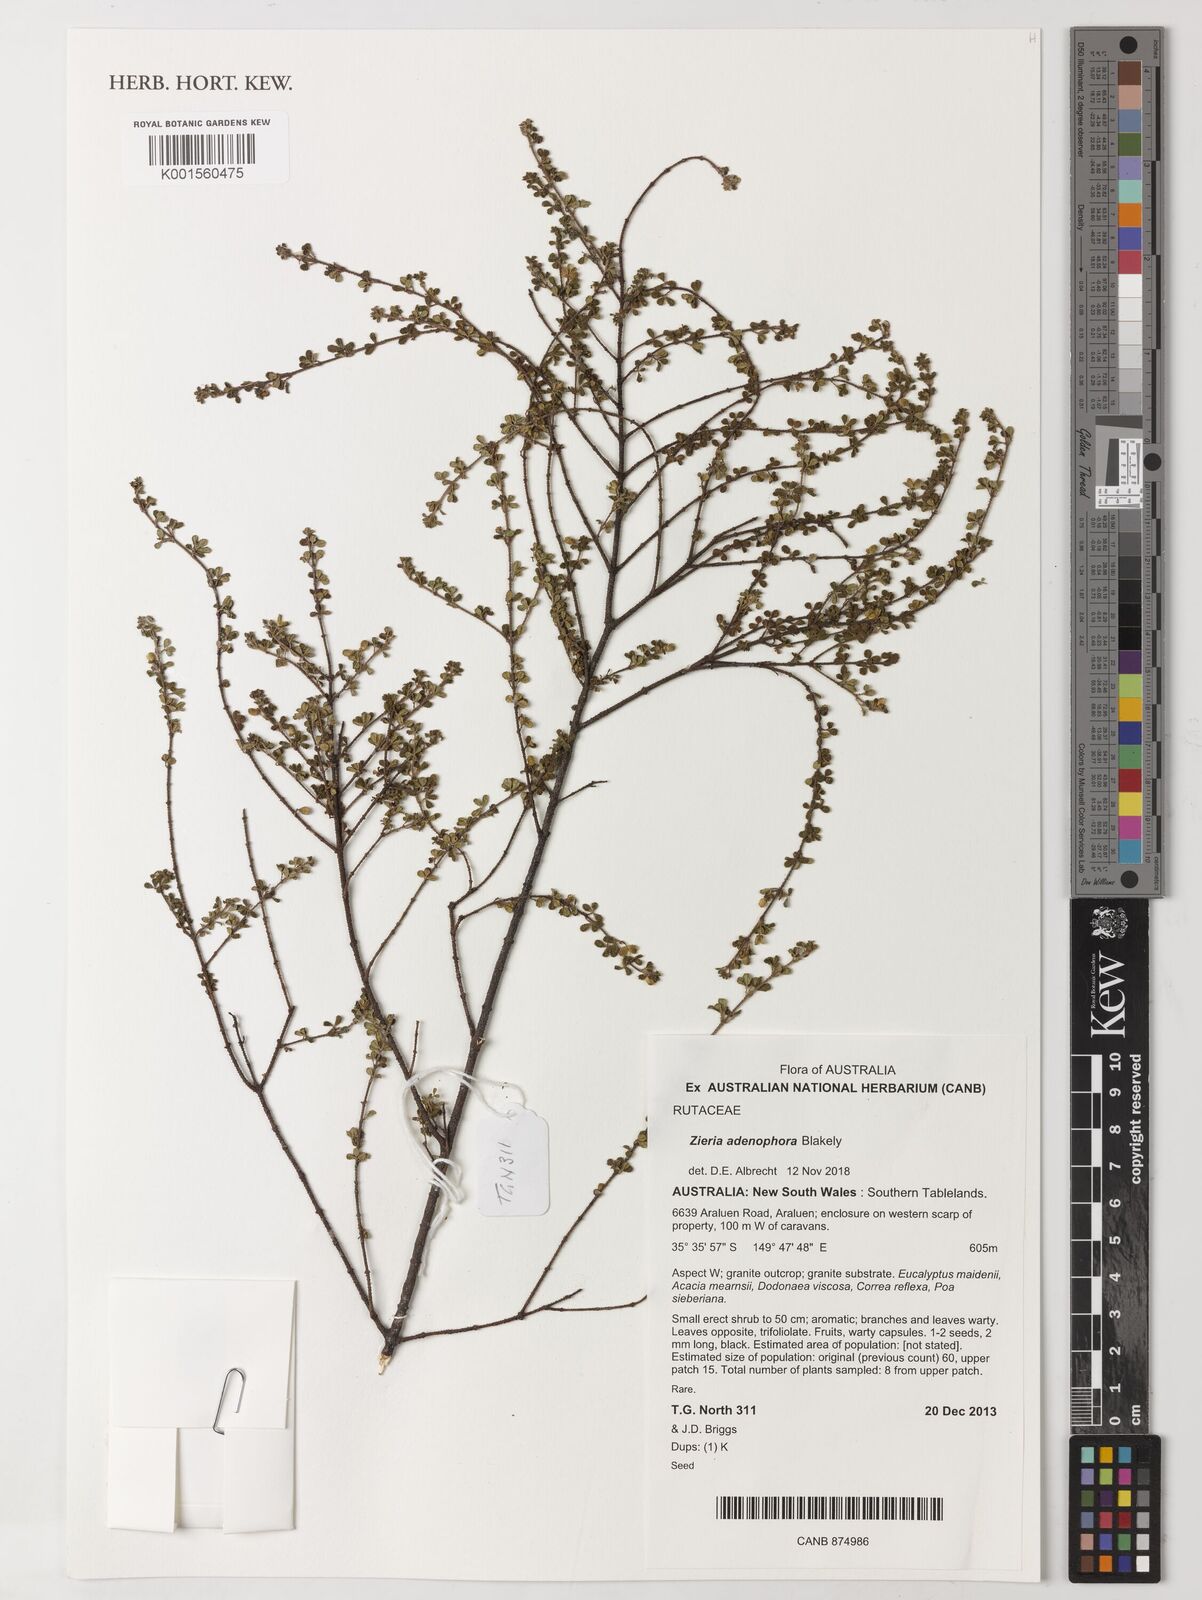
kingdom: Plantae
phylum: Tracheophyta
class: Magnoliopsida
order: Sapindales
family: Rutaceae
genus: Zieria
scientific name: Zieria adenophora
